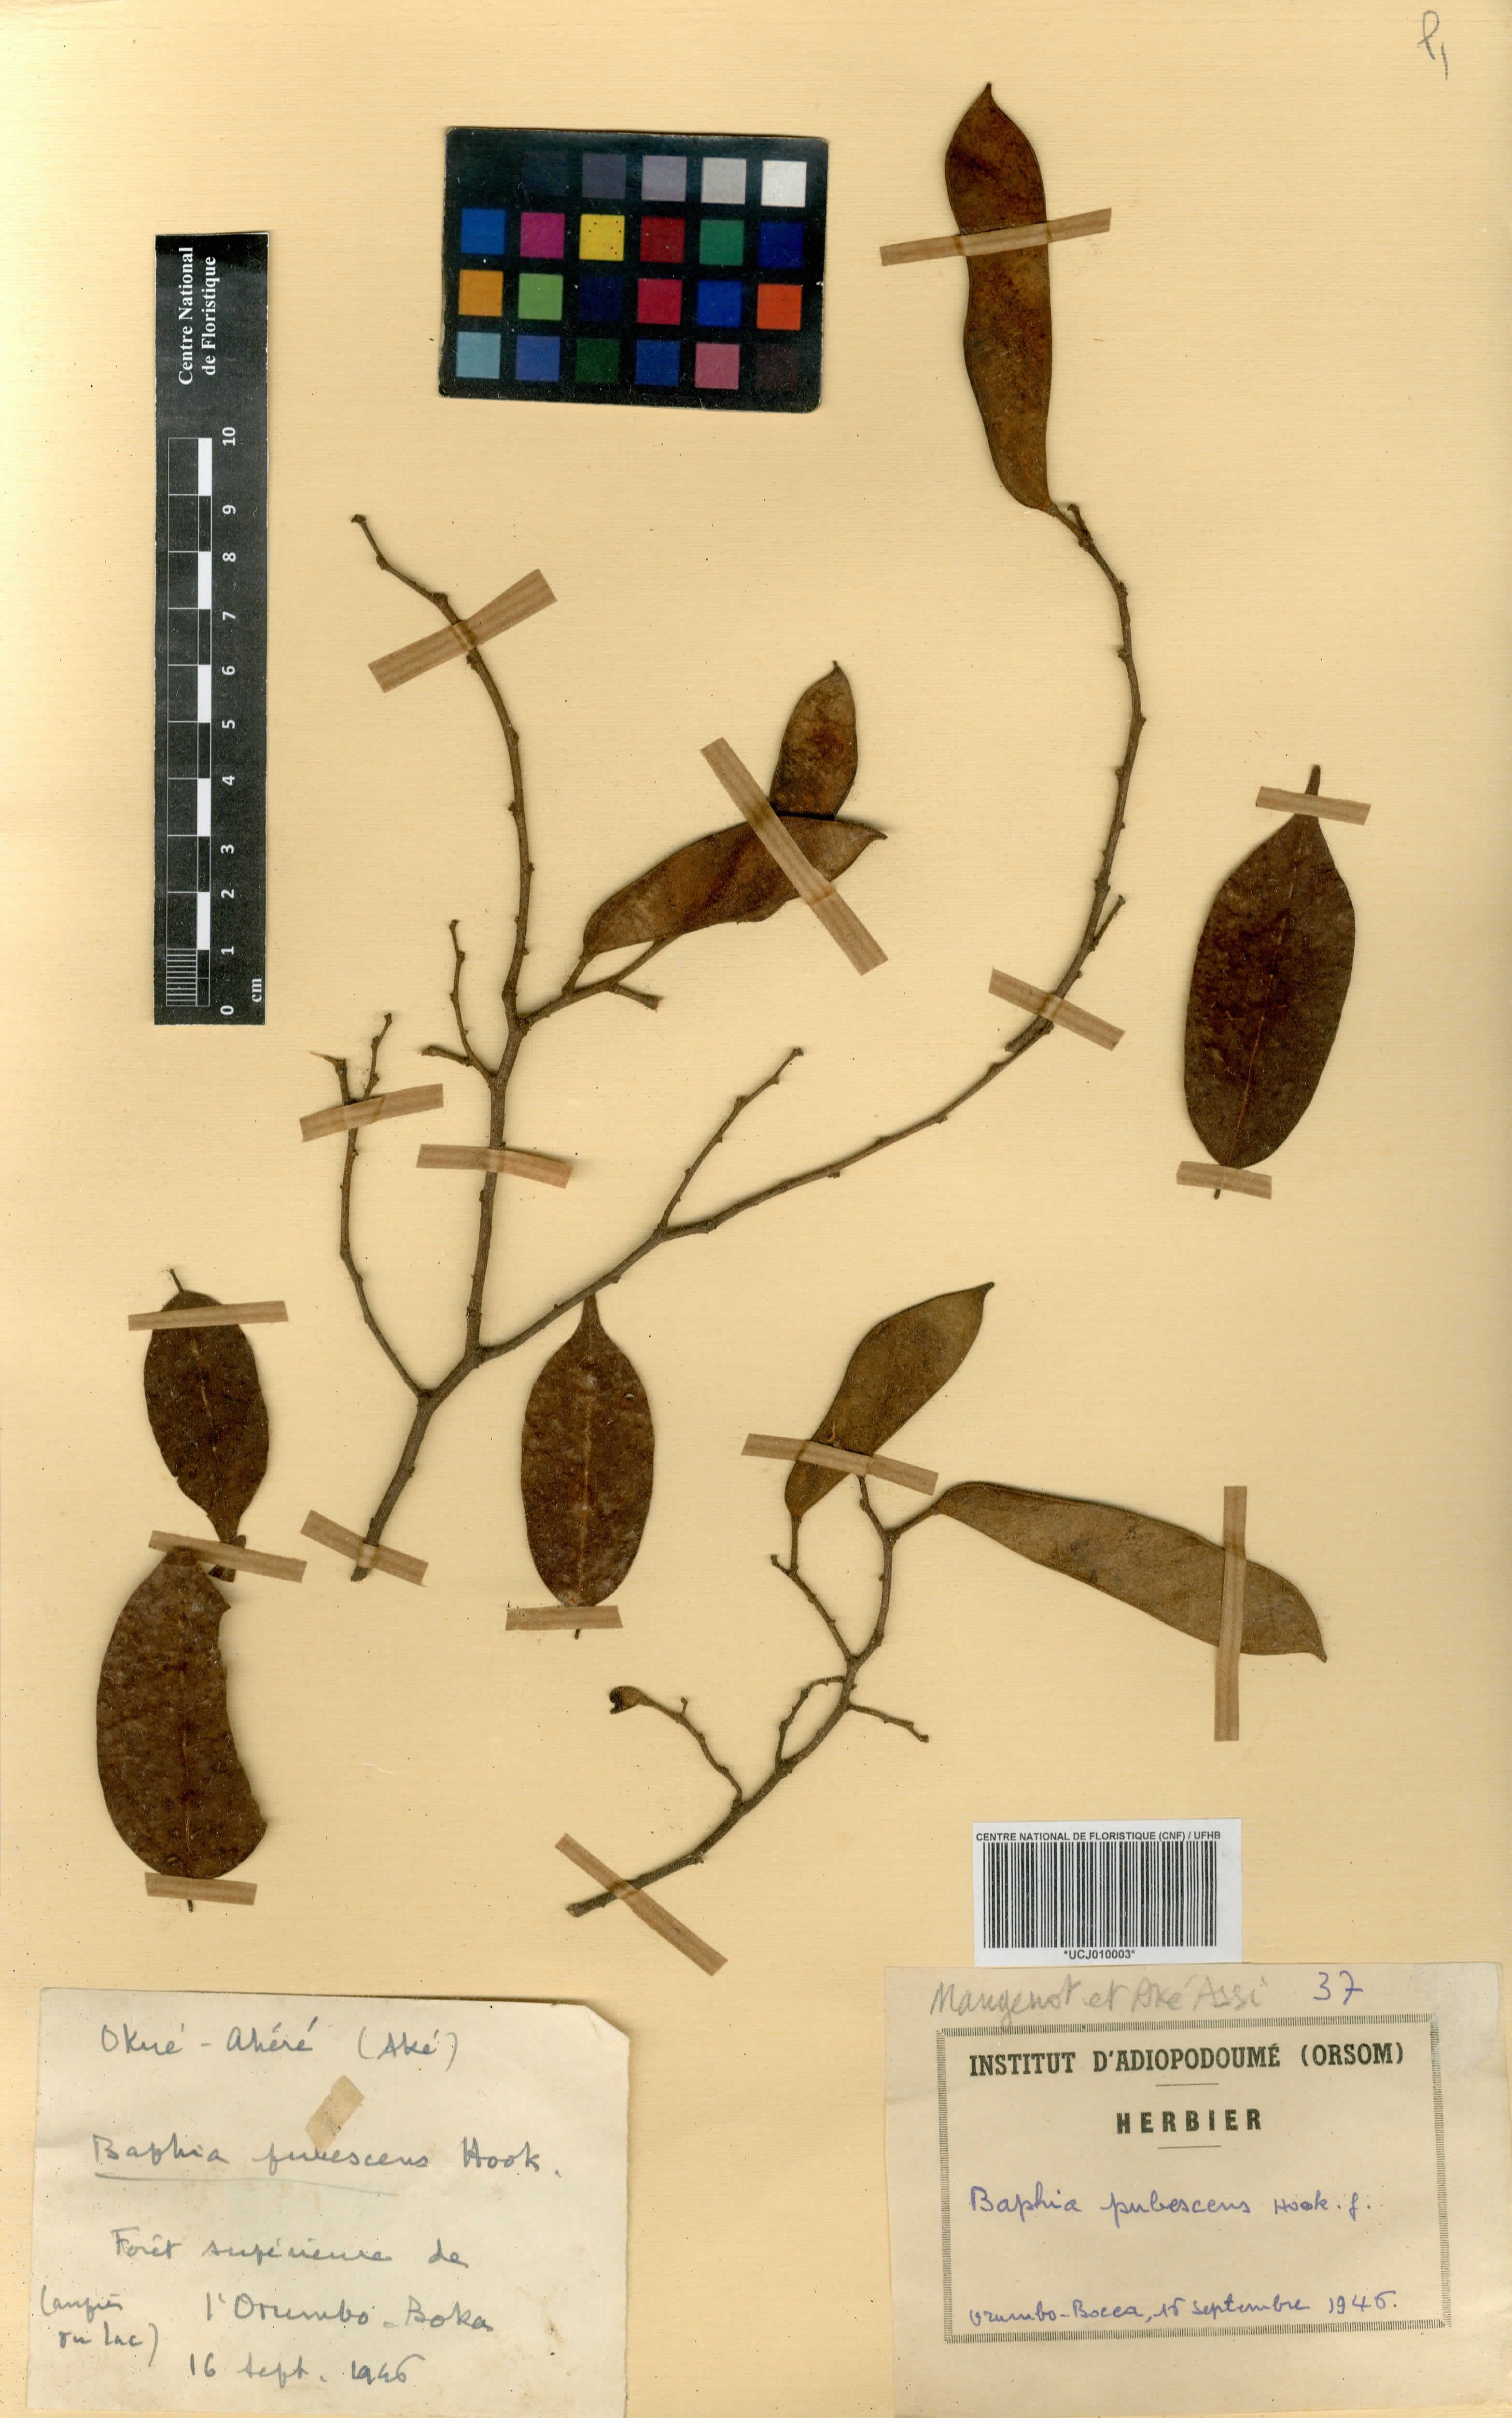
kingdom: Plantae
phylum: Tracheophyta
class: Magnoliopsida
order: Fabales
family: Fabaceae
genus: Baphia
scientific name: Baphia pubescens
